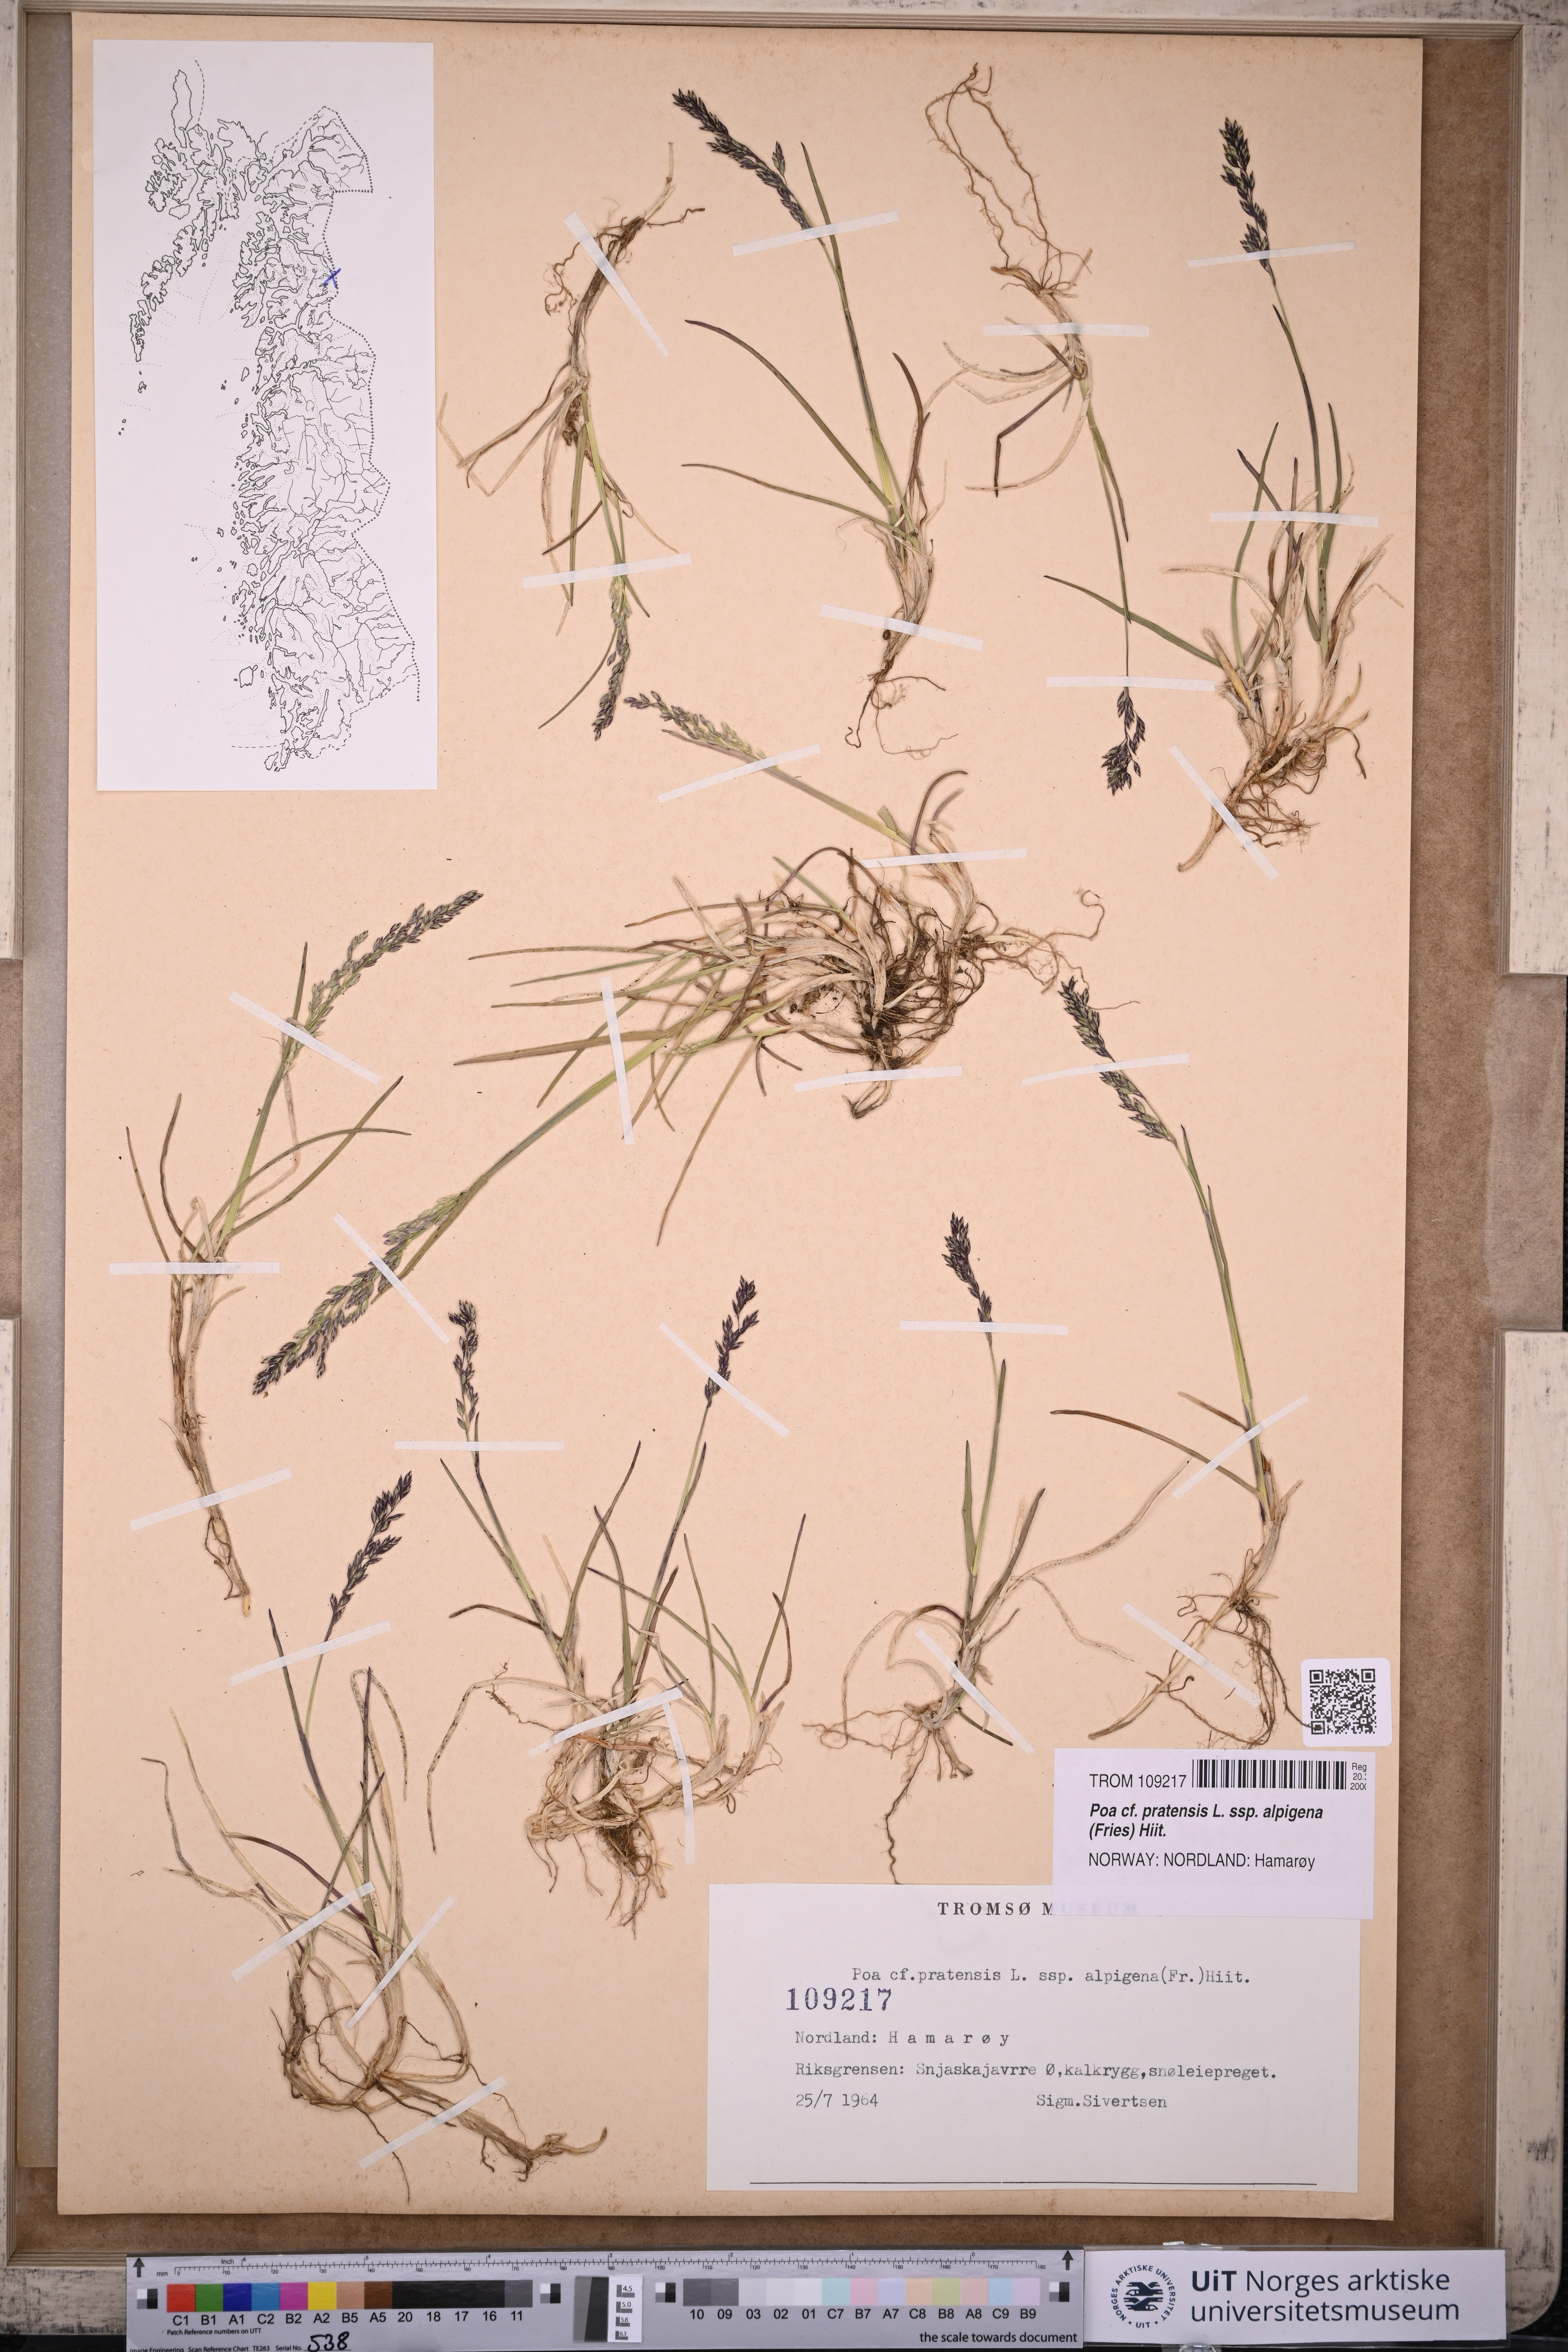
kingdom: Plantae
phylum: Tracheophyta
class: Liliopsida
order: Poales
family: Poaceae
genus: Poa
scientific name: Poa alpigena
